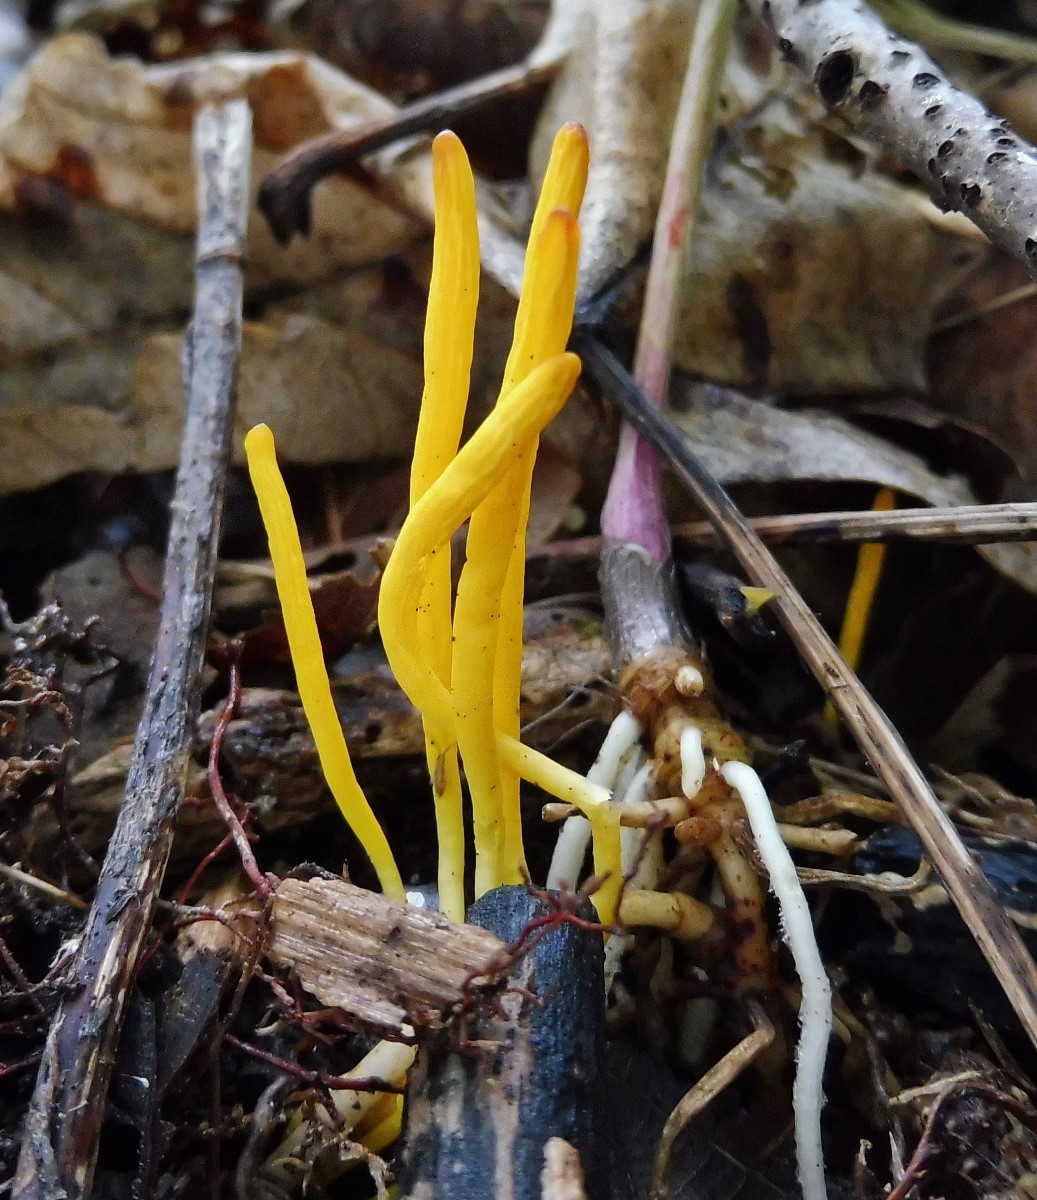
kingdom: Fungi
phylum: Basidiomycota
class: Agaricomycetes
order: Agaricales
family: Clavariaceae
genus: Clavulinopsis
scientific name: Clavulinopsis
